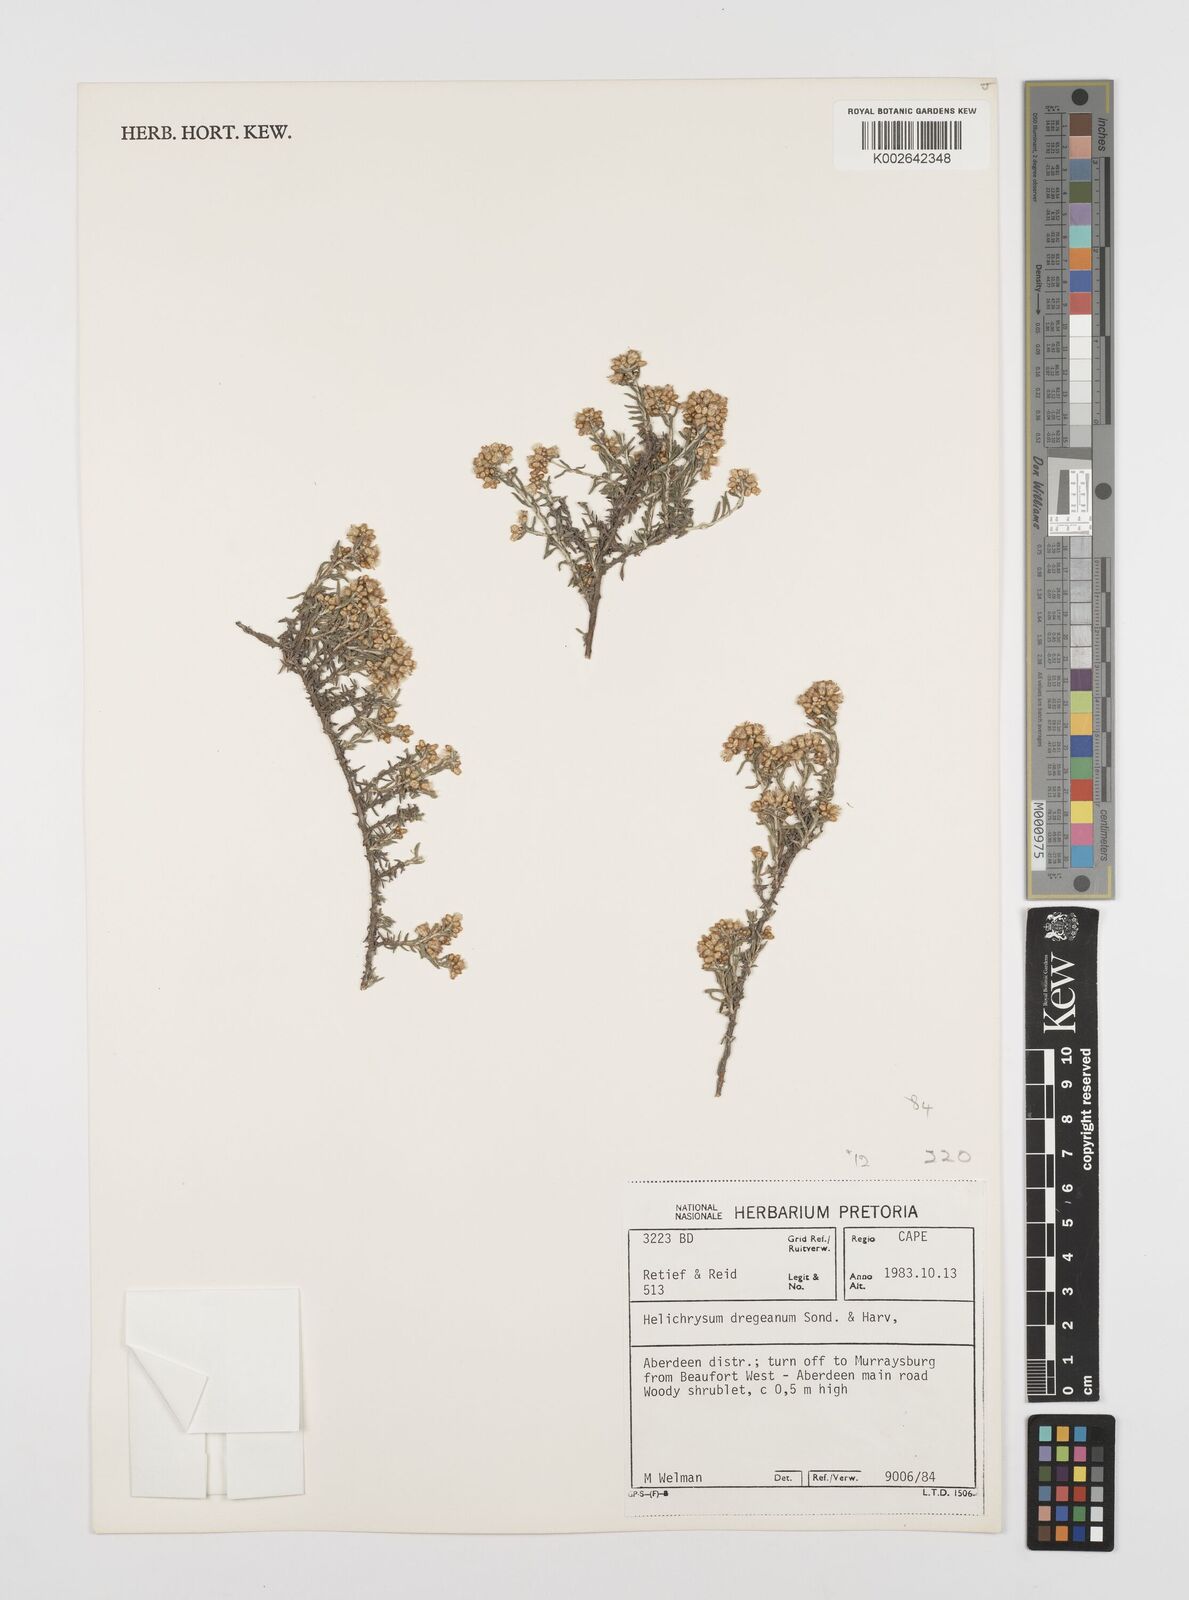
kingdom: Plantae
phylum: Tracheophyta
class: Magnoliopsida
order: Asterales
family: Asteraceae
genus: Helichrysum
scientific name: Helichrysum dregeanum
